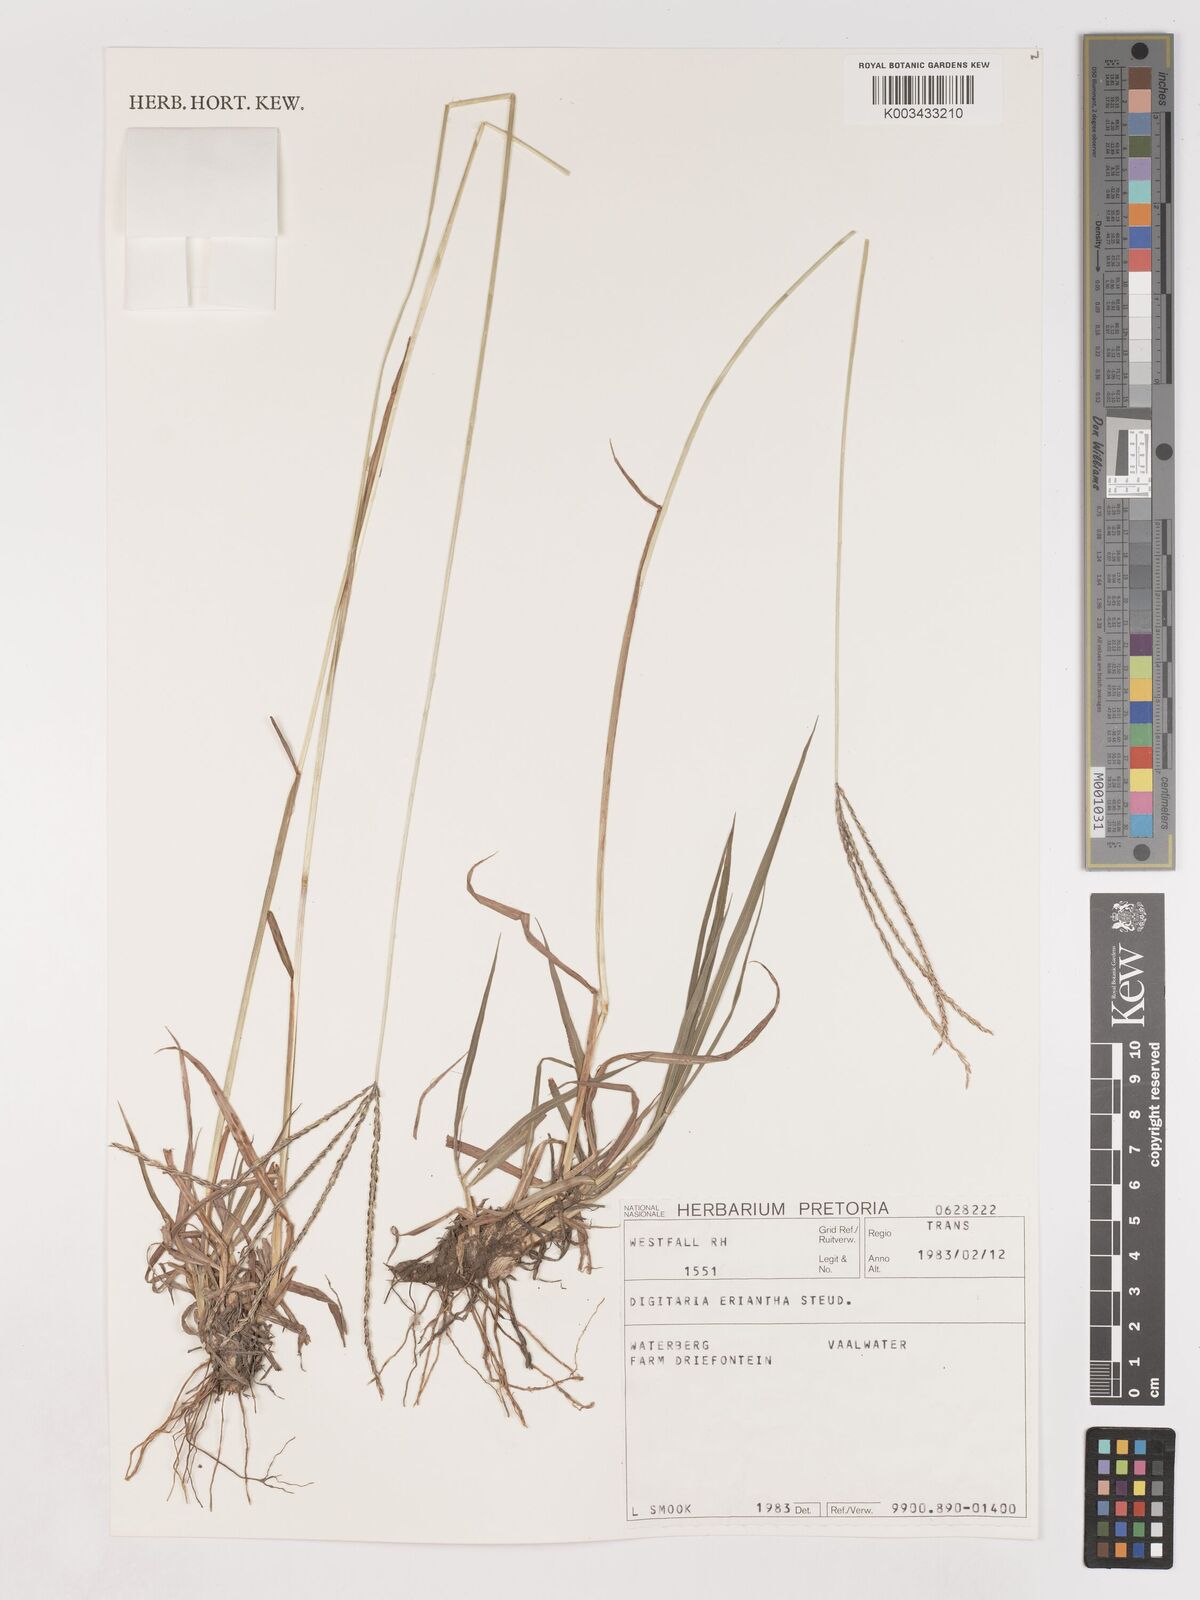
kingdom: Plantae
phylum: Tracheophyta
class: Liliopsida
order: Poales
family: Poaceae
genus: Digitaria
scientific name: Digitaria eriantha
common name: Digitgrass
